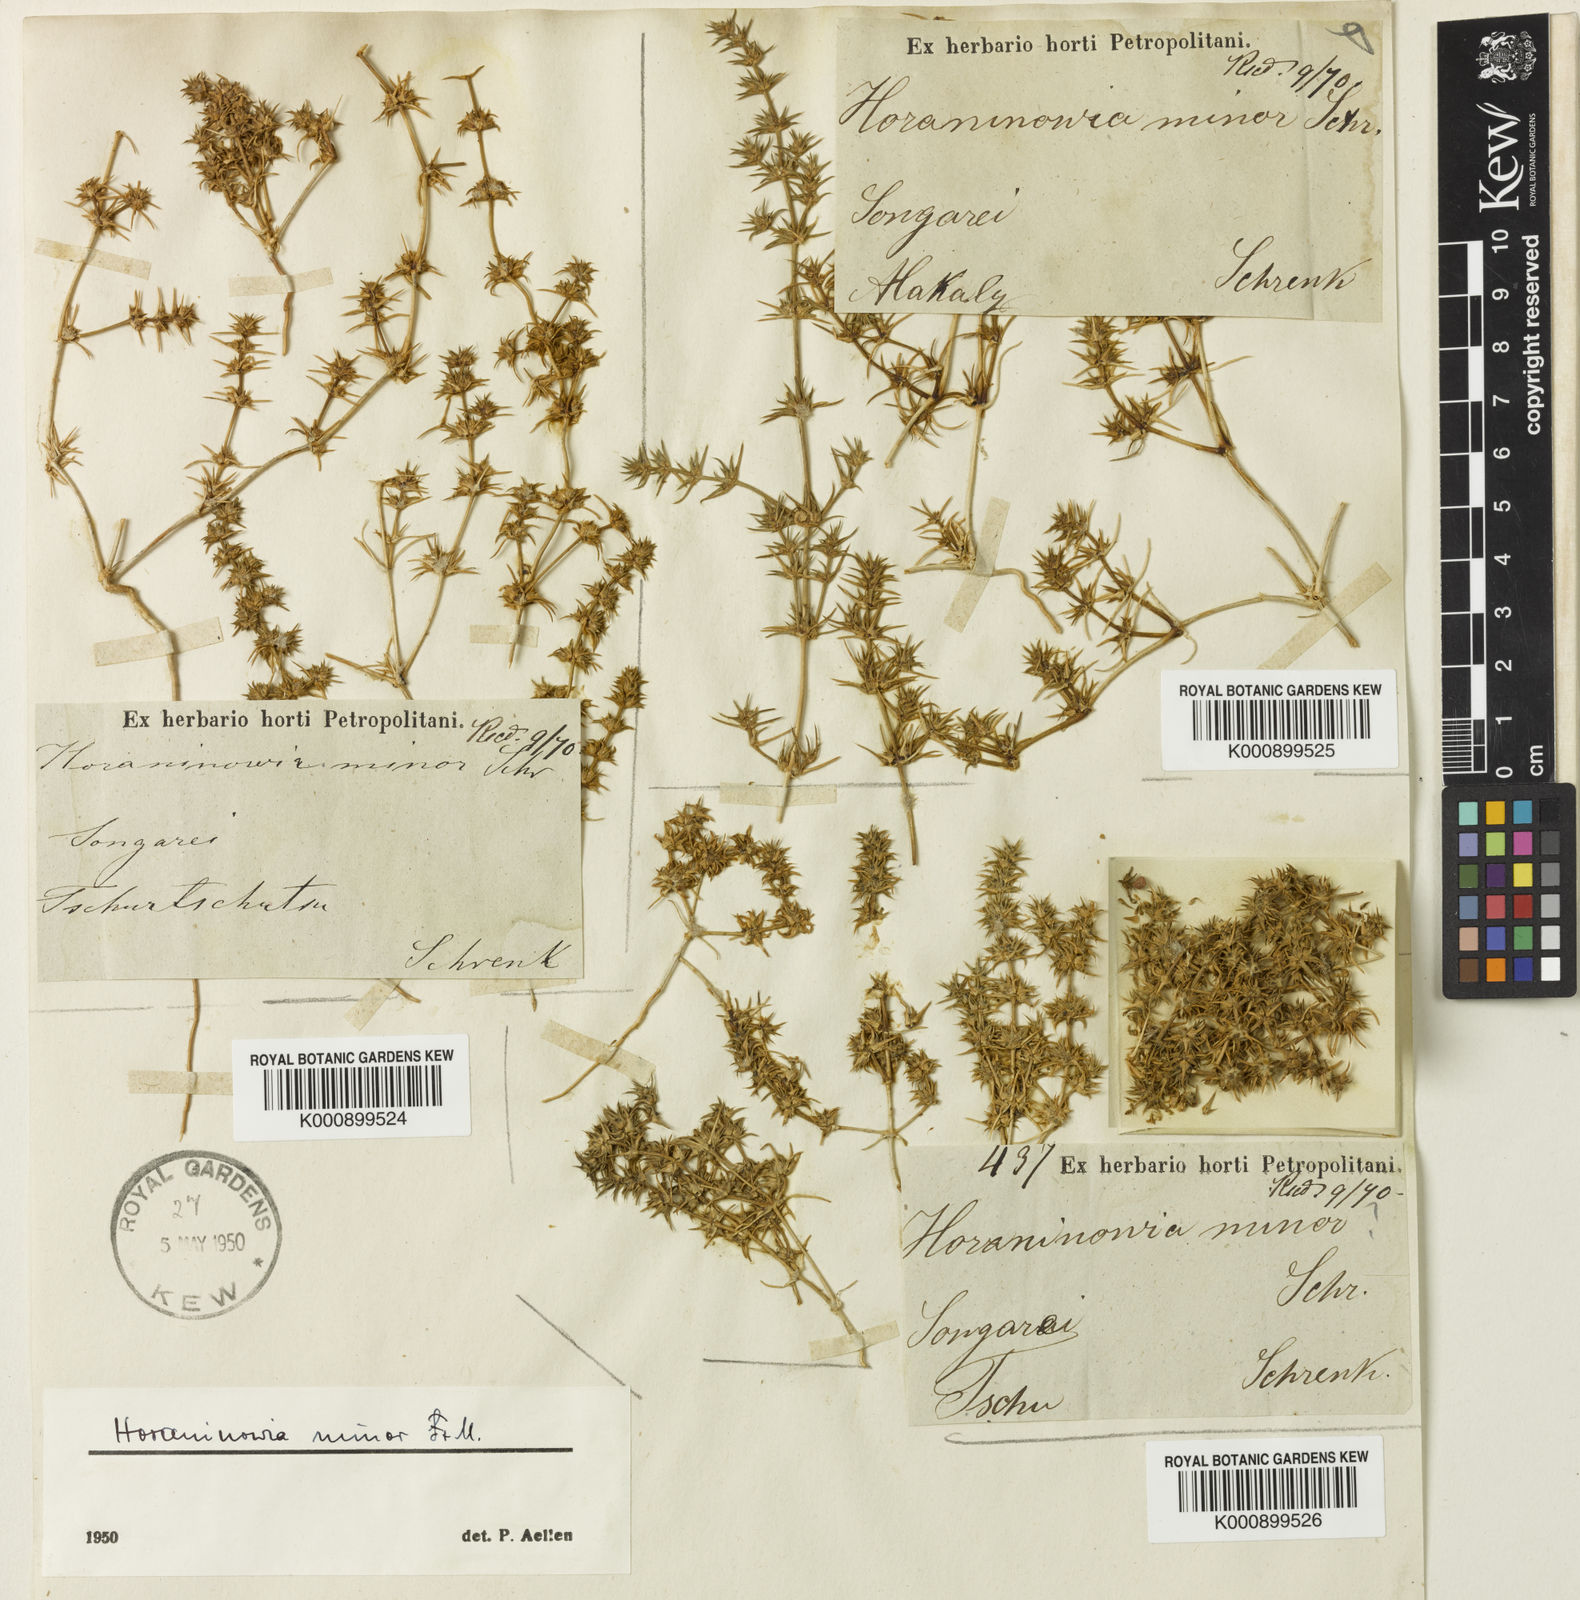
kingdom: Plantae
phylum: Tracheophyta
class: Magnoliopsida
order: Caryophyllales
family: Amaranthaceae
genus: Horaninovia
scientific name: Horaninovia
